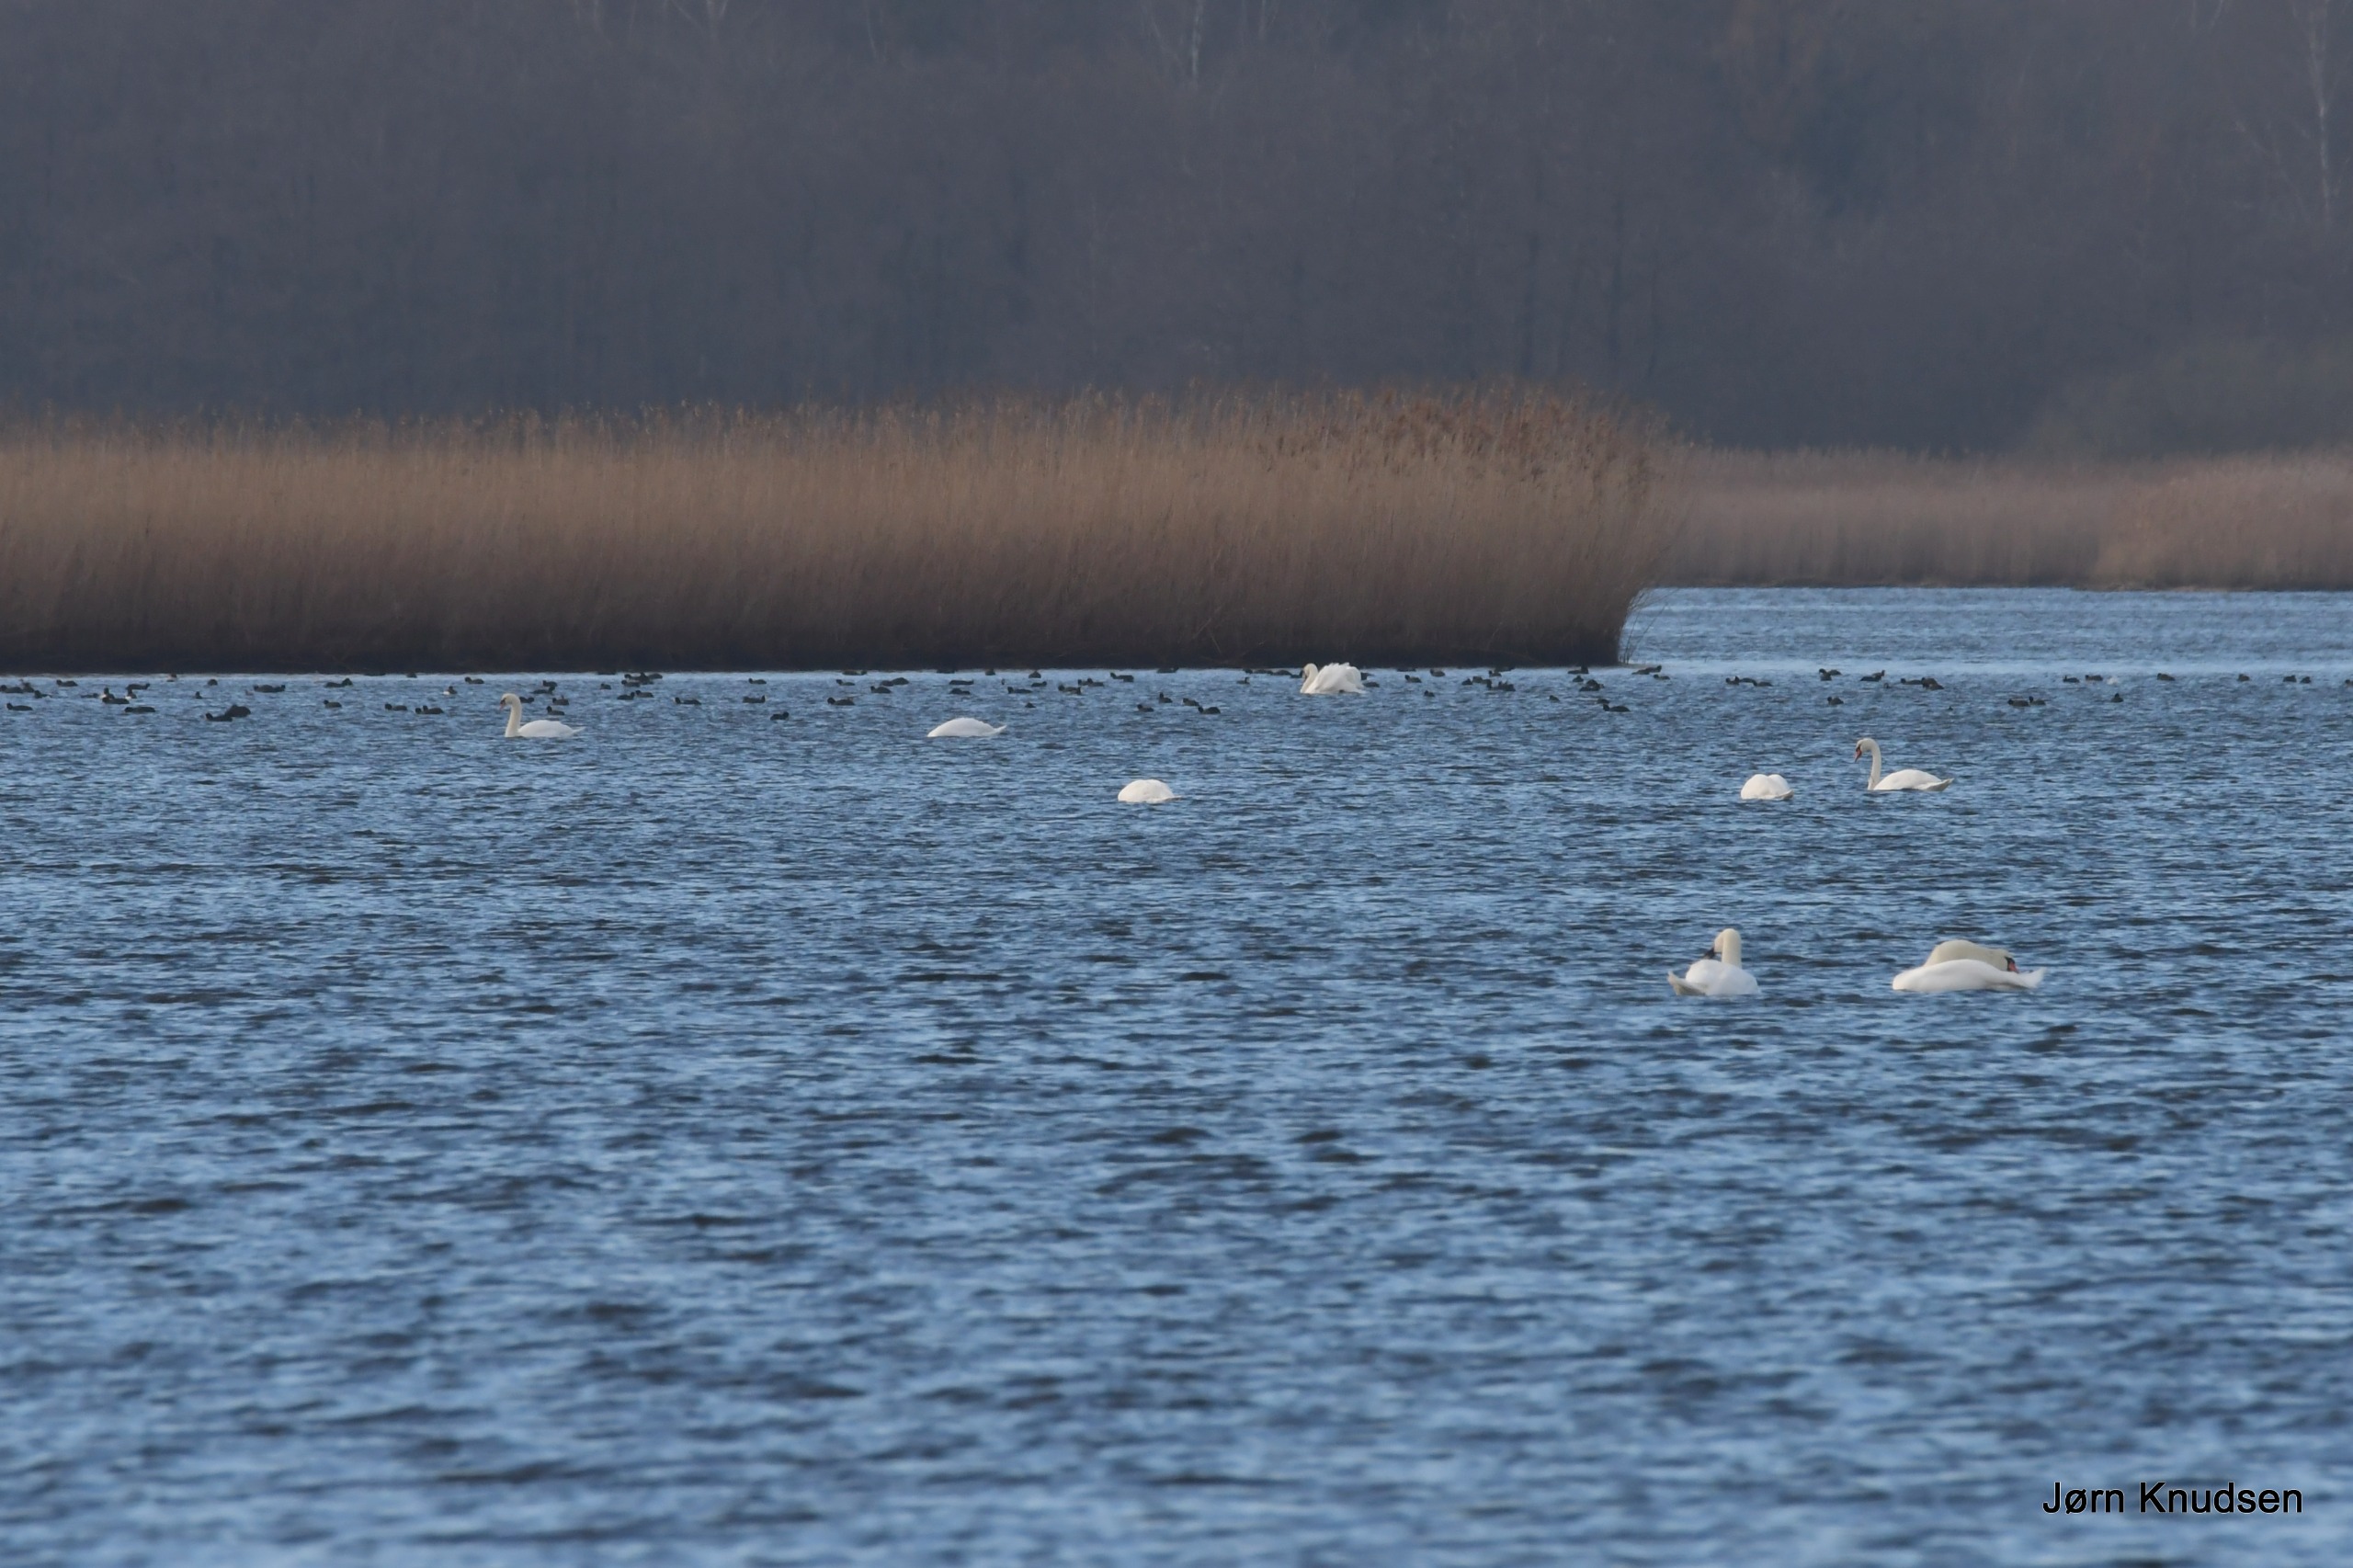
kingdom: Animalia
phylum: Chordata
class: Aves
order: Anseriformes
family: Anatidae
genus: Cygnus
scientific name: Cygnus olor
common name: Knopsvane
